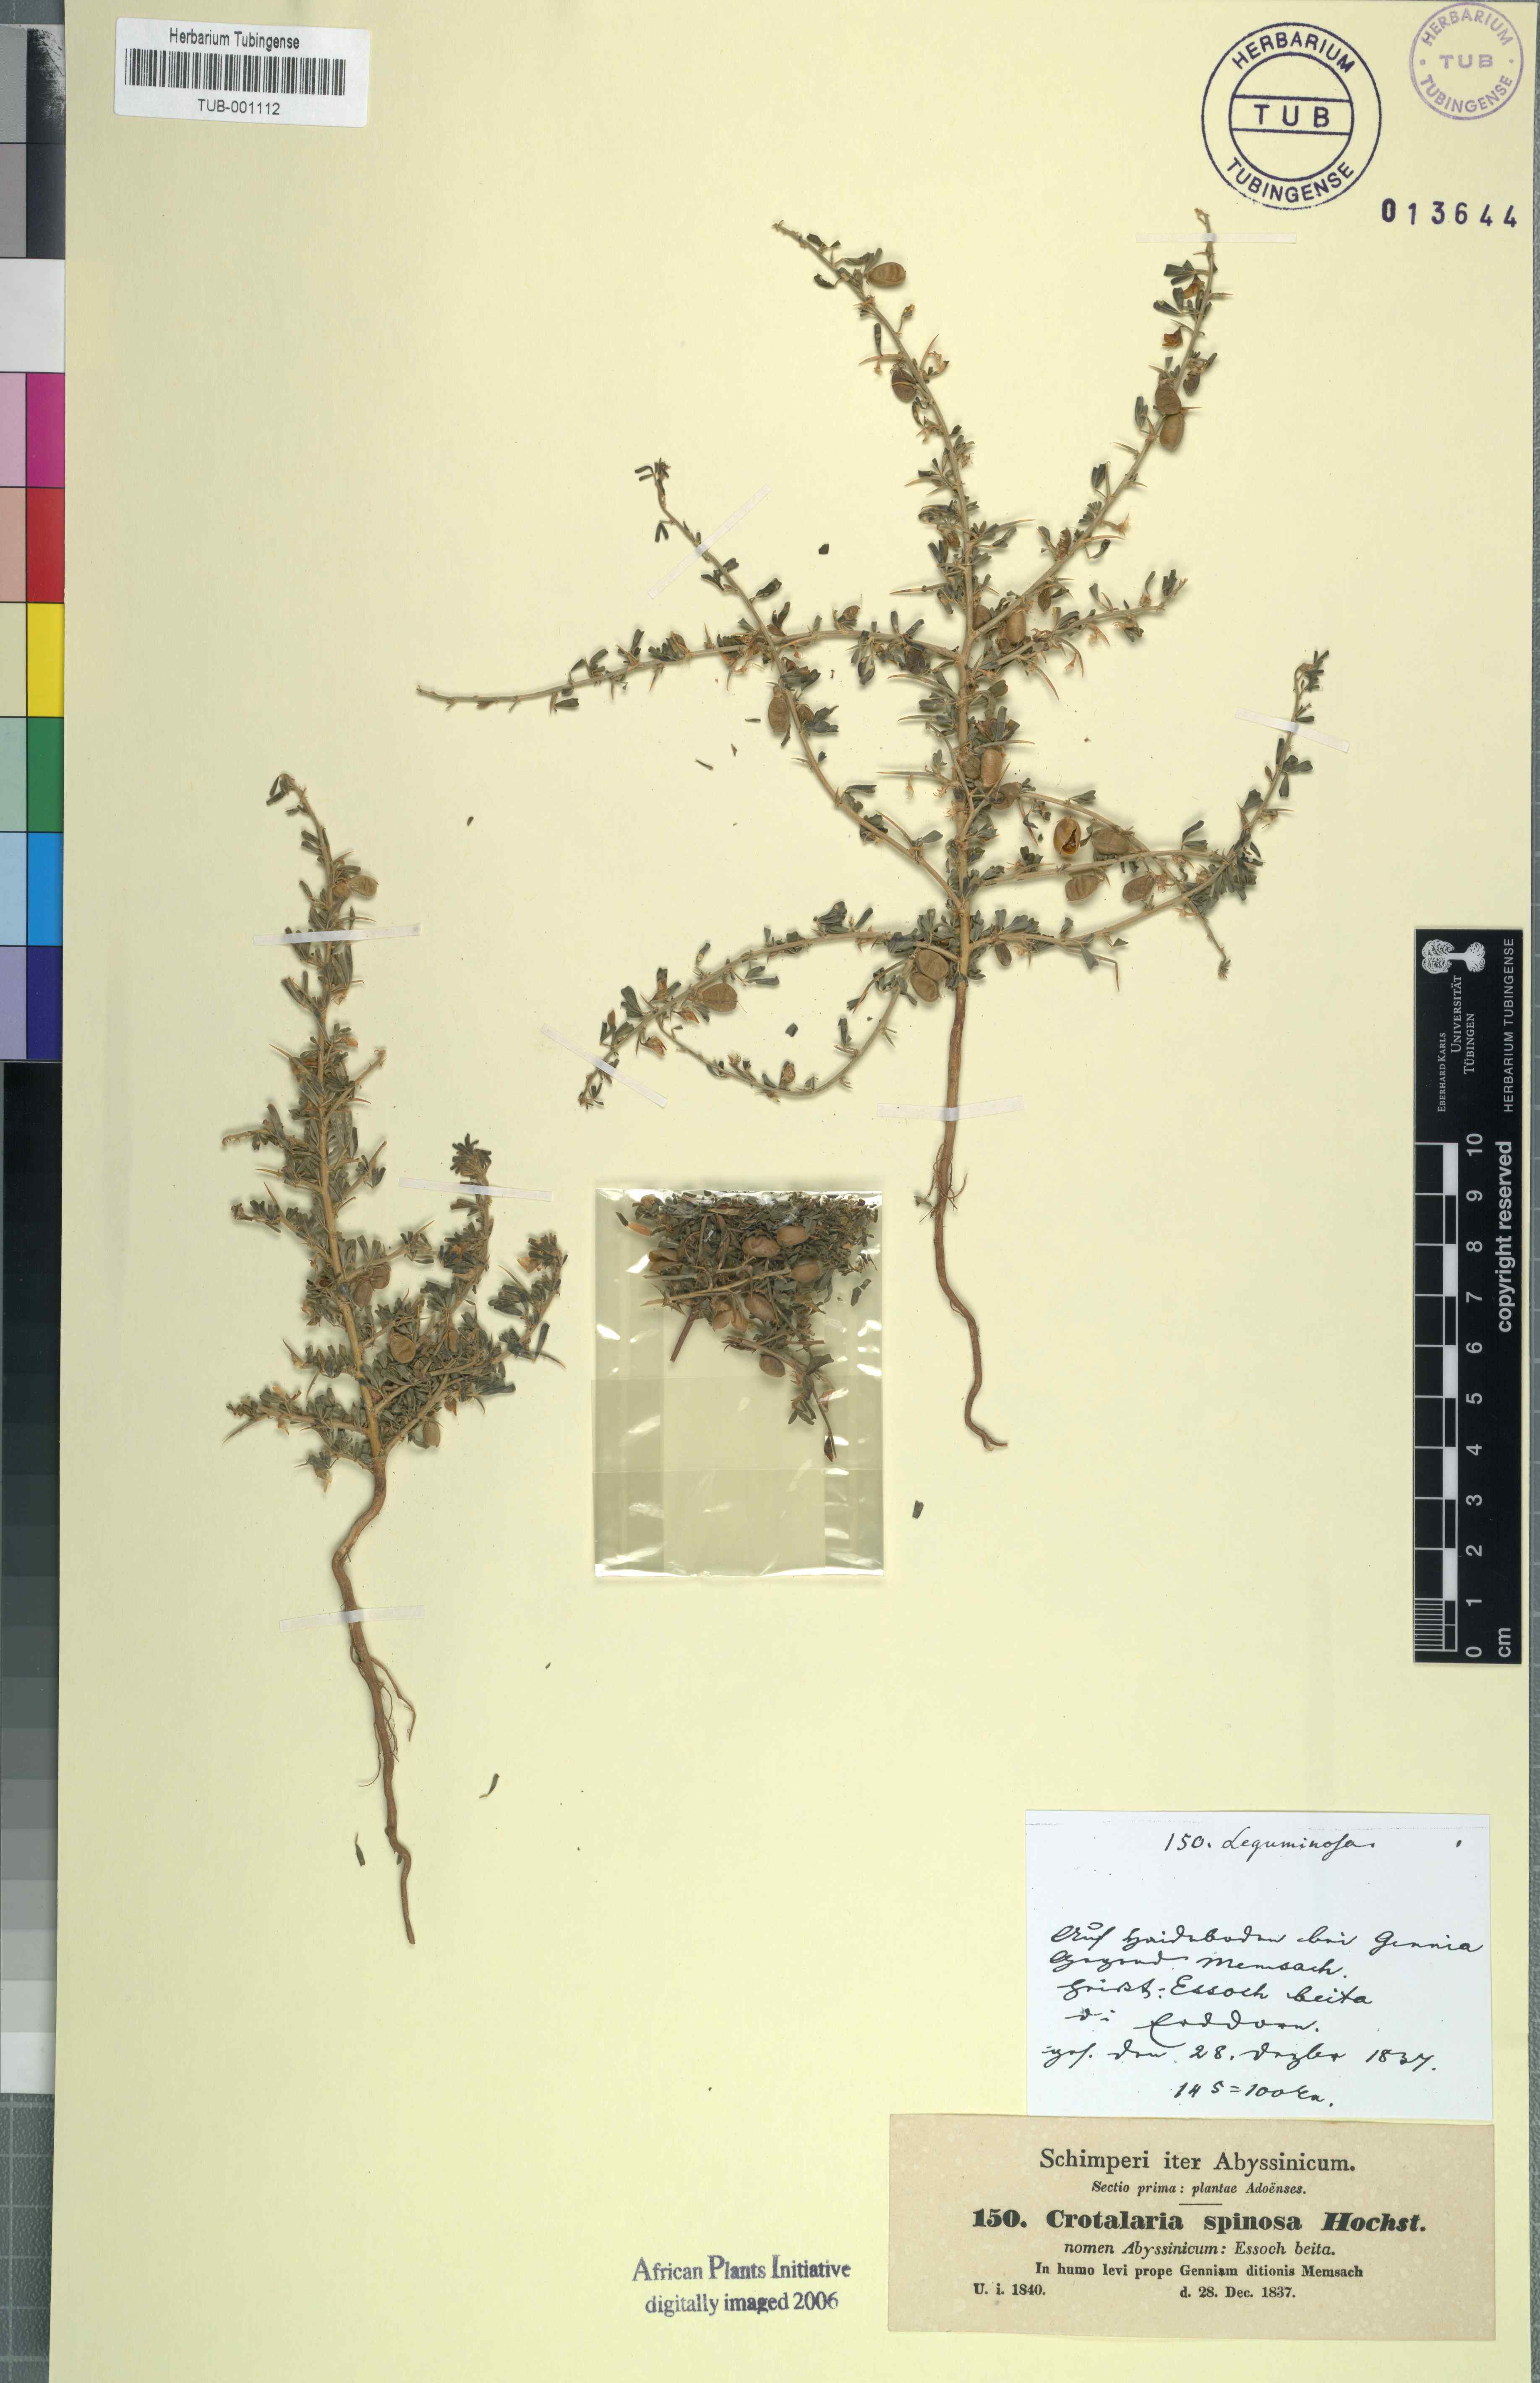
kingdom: Plantae
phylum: Tracheophyta
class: Magnoliopsida
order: Fabales
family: Fabaceae
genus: Crotalaria
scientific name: Crotalaria spinosa
